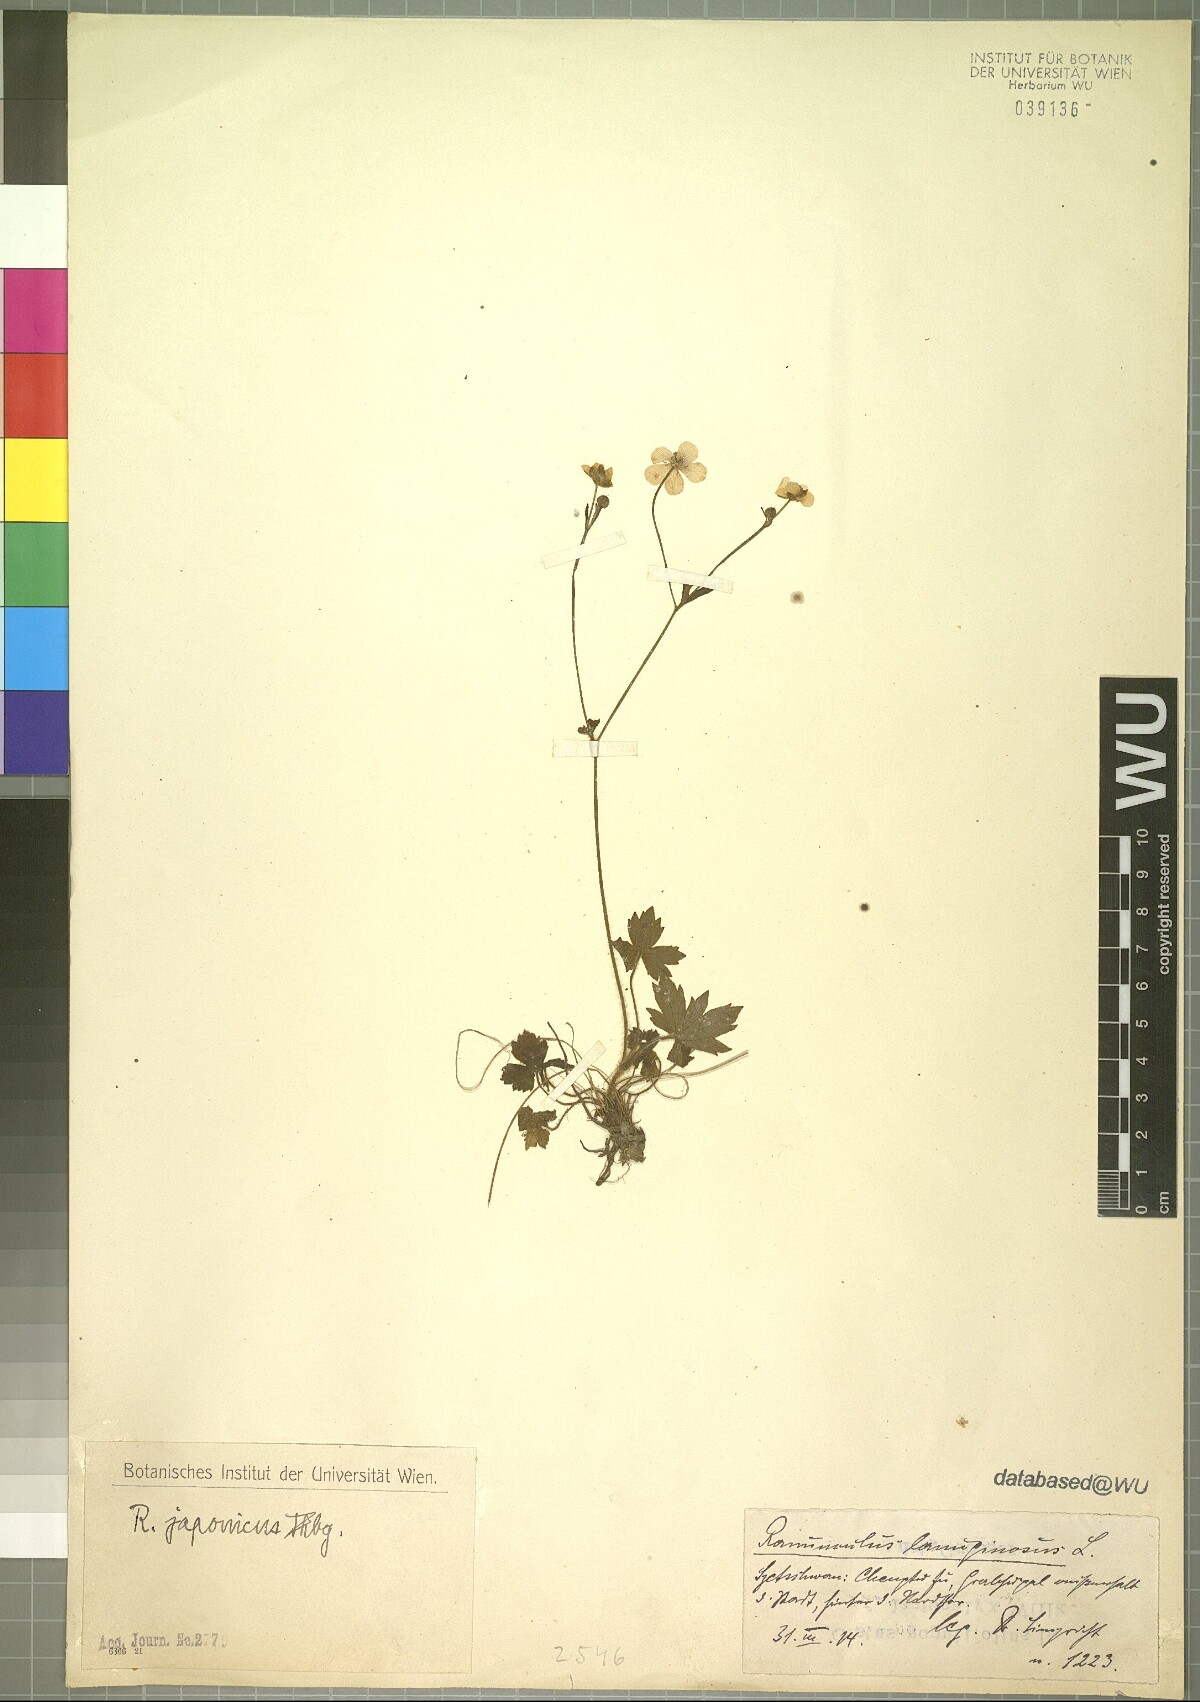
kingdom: Plantae
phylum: Tracheophyta
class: Magnoliopsida
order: Ranunculales
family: Ranunculaceae
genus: Ranunculus
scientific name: Ranunculus japonicus
